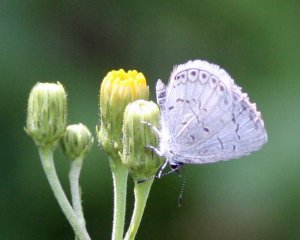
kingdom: Animalia
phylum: Arthropoda
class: Insecta
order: Lepidoptera
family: Lycaenidae
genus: Cyaniris
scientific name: Cyaniris neglecta
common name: Summer Azure
